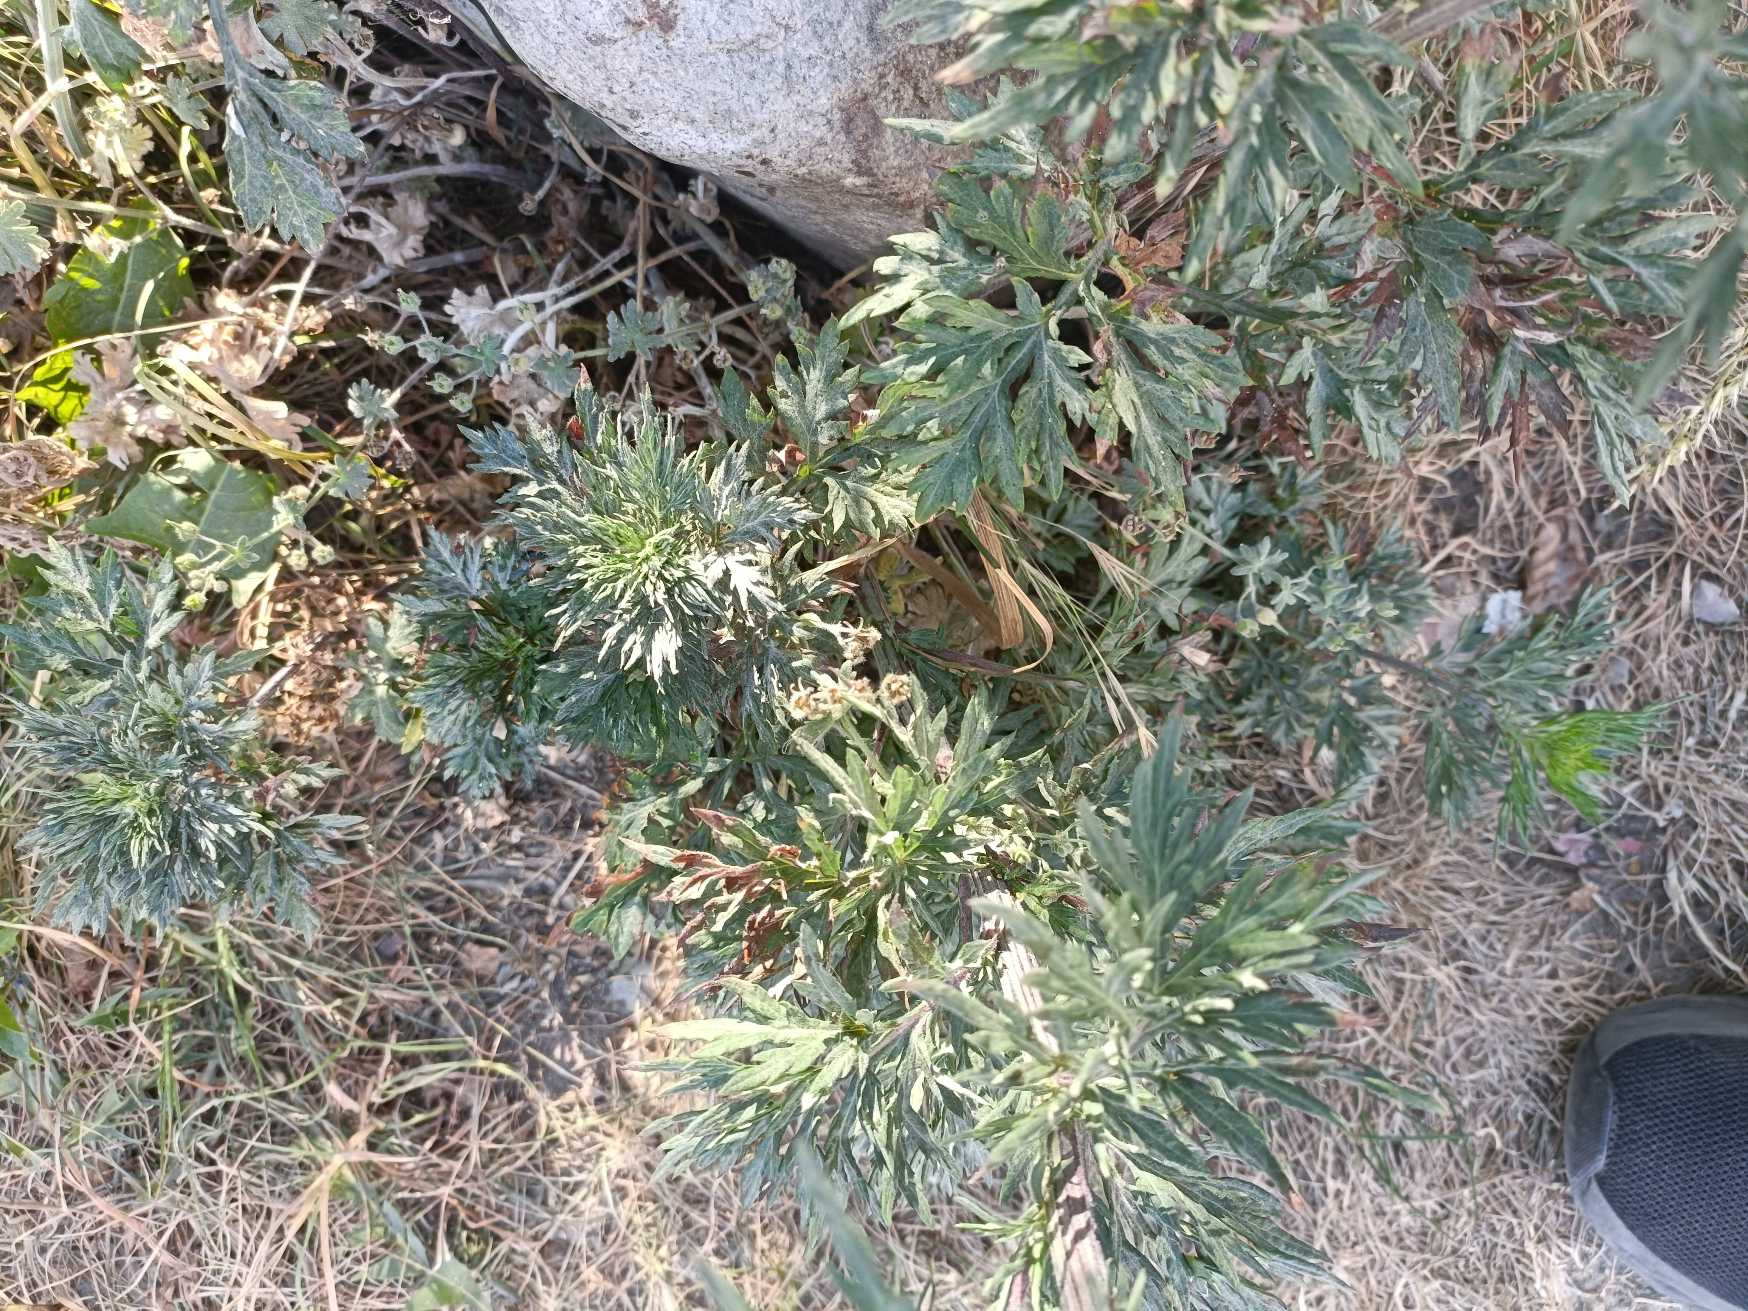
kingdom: Plantae
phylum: Tracheophyta
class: Magnoliopsida
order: Asterales
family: Asteraceae
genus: Artemisia
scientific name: Artemisia vulgaris
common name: Grå-bynke
